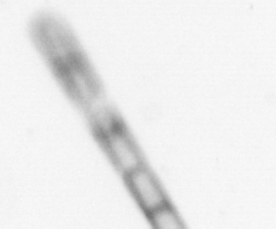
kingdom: Chromista
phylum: Ochrophyta
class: Bacillariophyceae
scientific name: Bacillariophyceae
